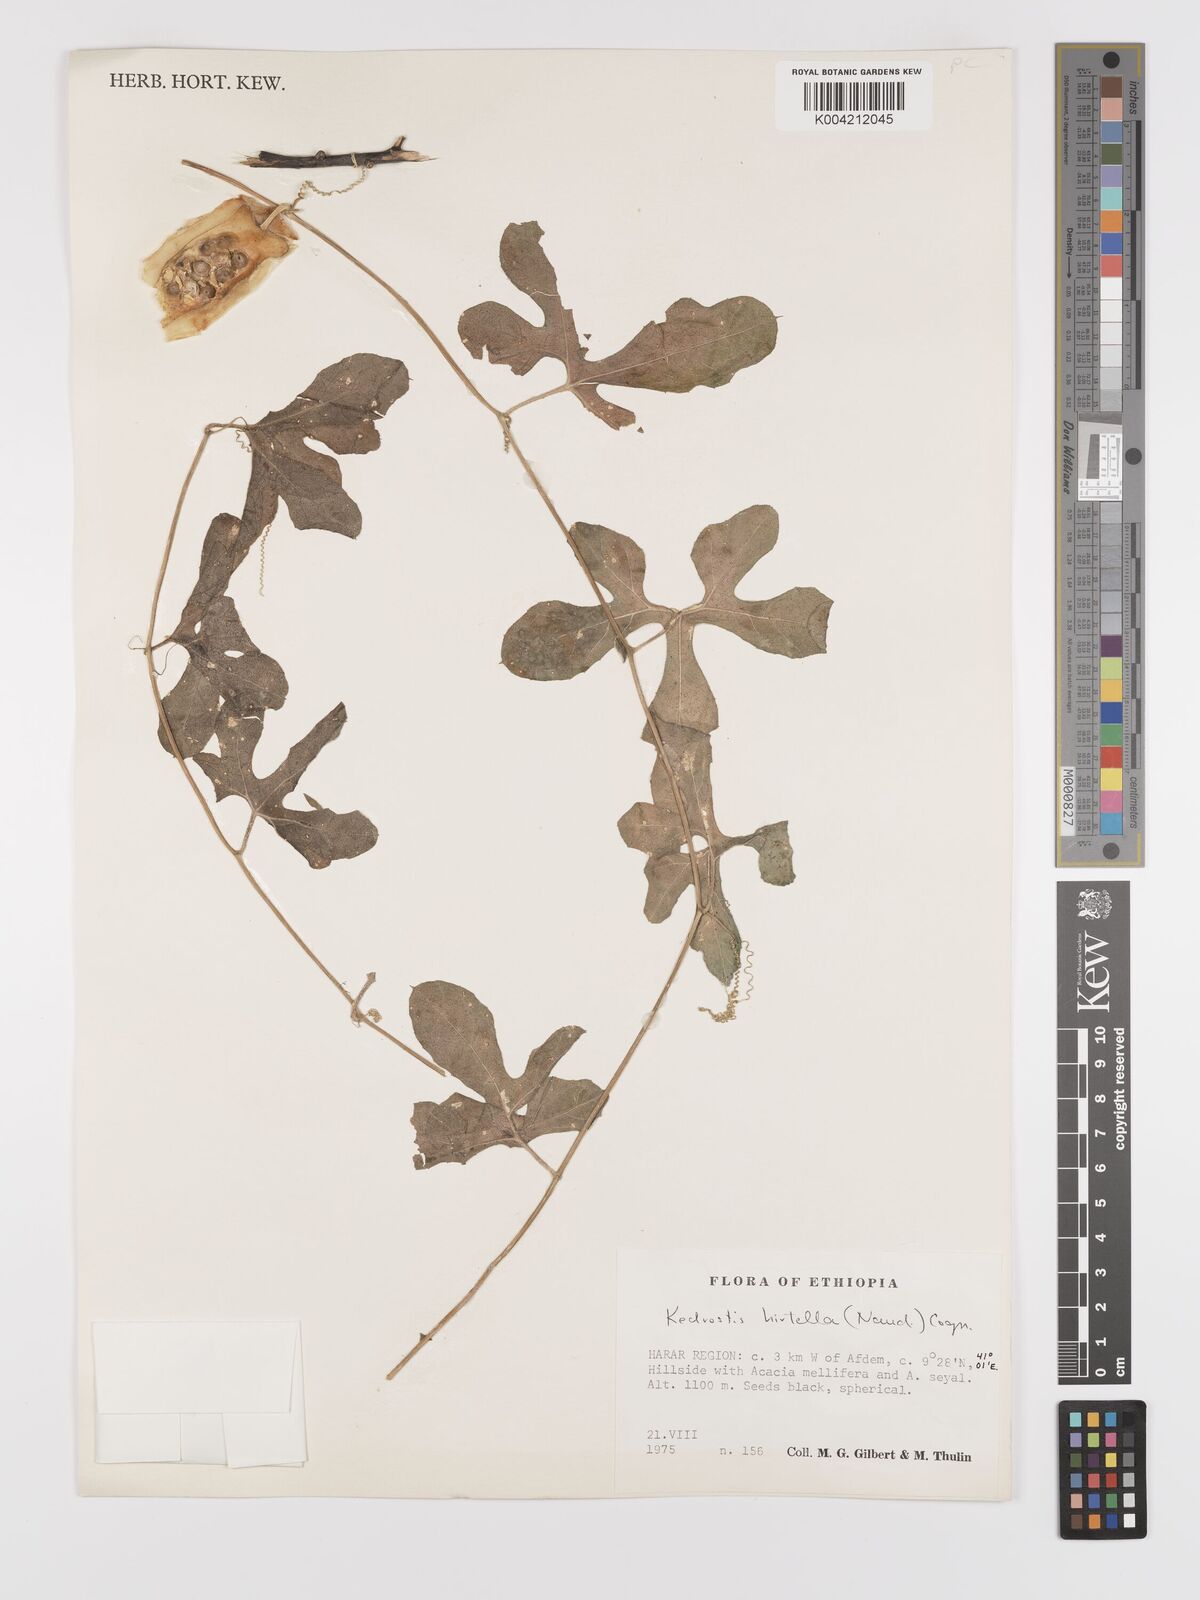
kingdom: Plantae
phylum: Tracheophyta
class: Magnoliopsida
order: Cucurbitales
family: Cucurbitaceae
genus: Kedrostis
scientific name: Kedrostis leloja
